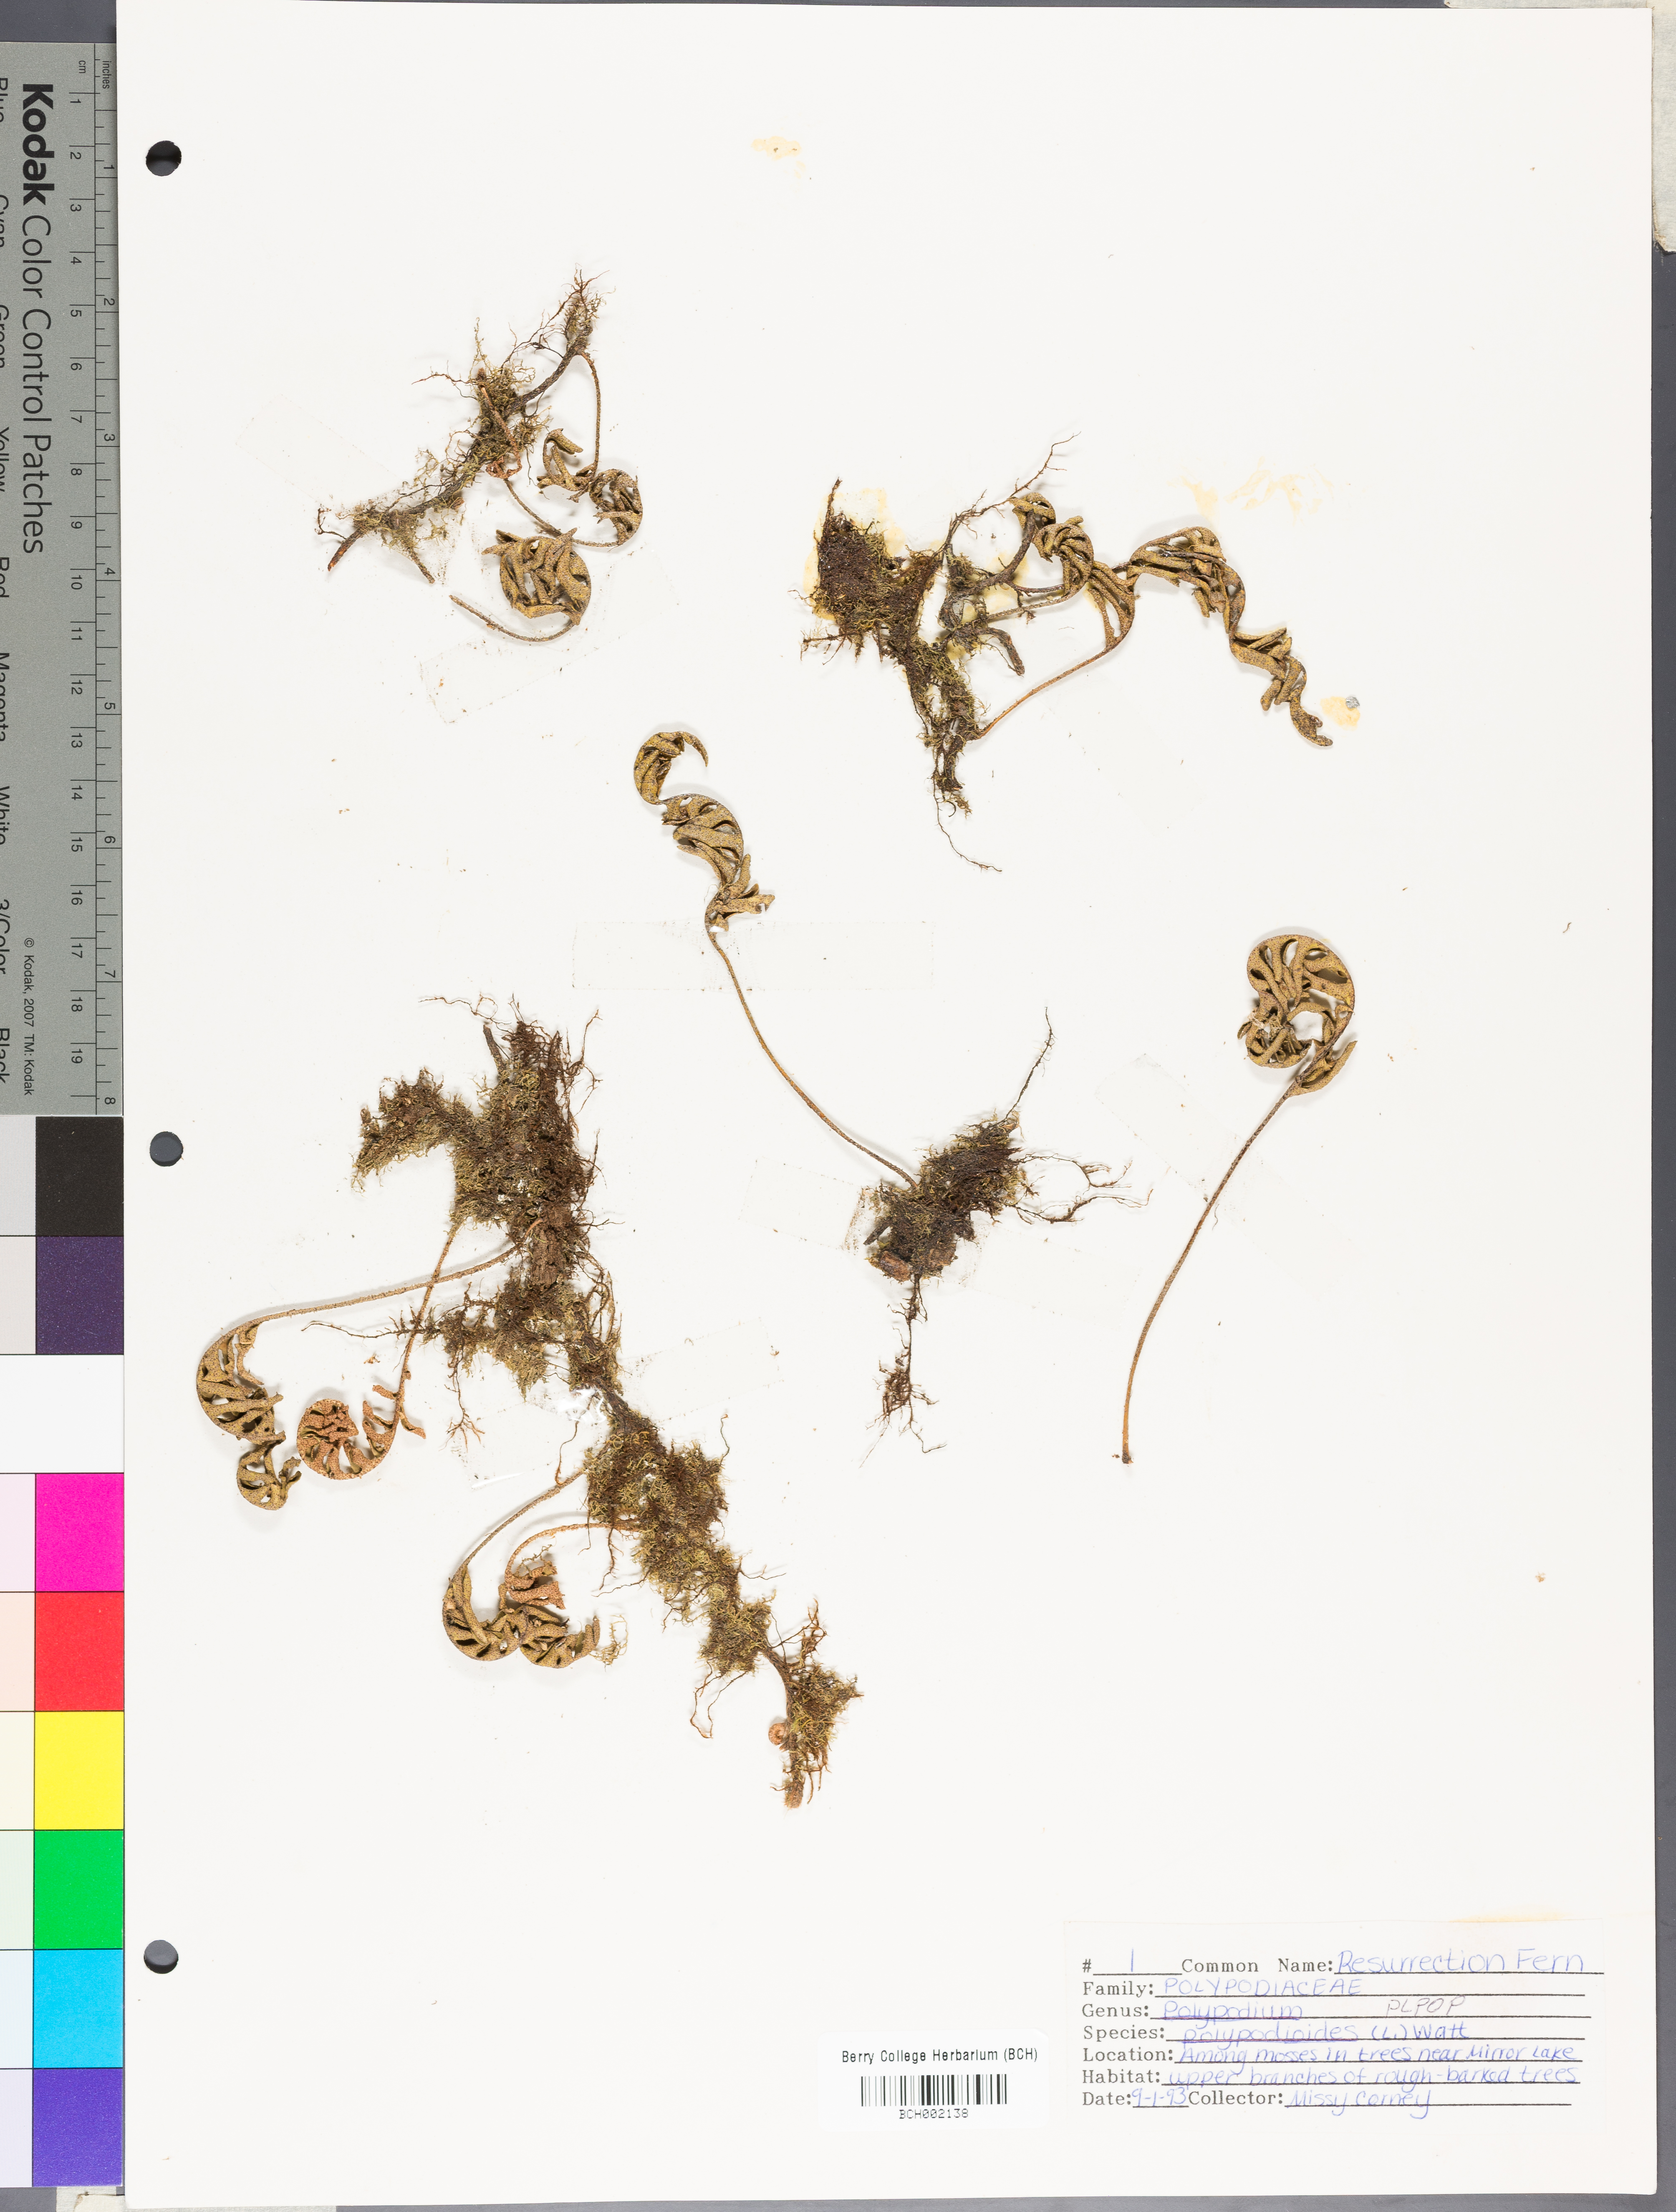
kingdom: Plantae
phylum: Tracheophyta
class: Polypodiopsida
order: Polypodiales
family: Polypodiaceae
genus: Pleopeltis
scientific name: Pleopeltis polypodioides
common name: Resurrection fern
